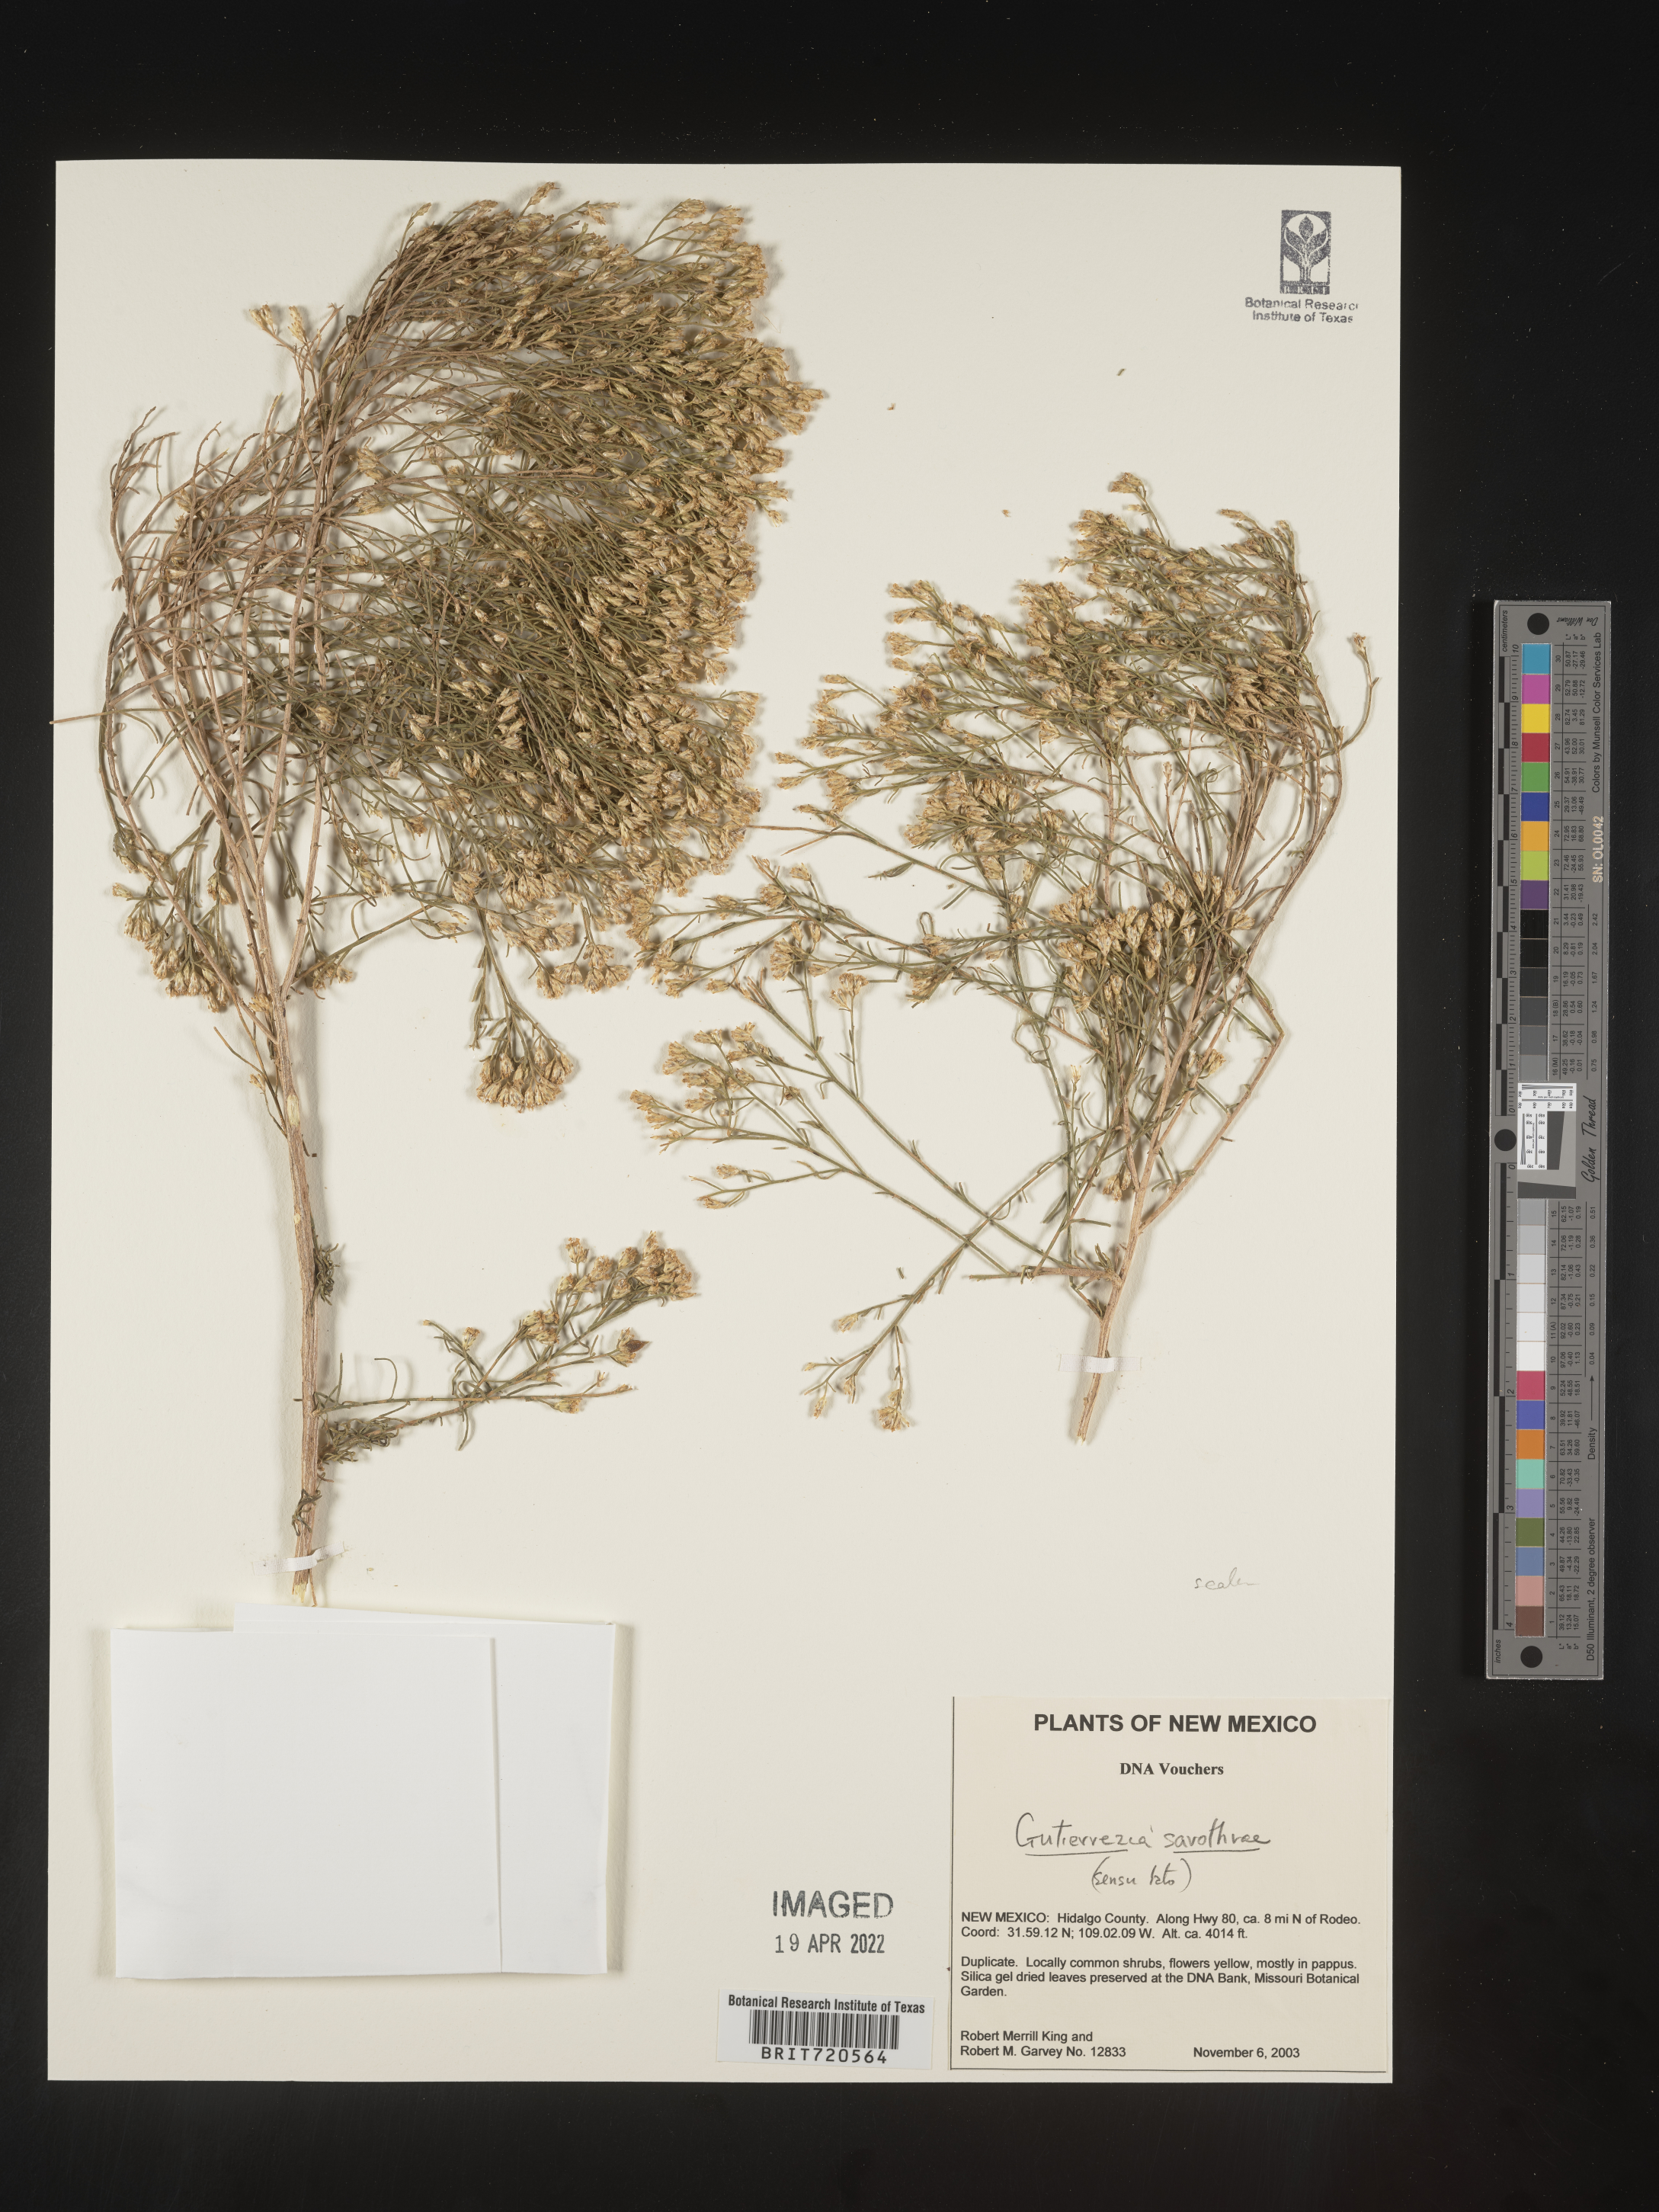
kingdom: Plantae
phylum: Tracheophyta
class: Magnoliopsida
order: Asterales
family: Asteraceae
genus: Gutierrezia
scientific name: Gutierrezia sarothrae
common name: Broom snakeweed
